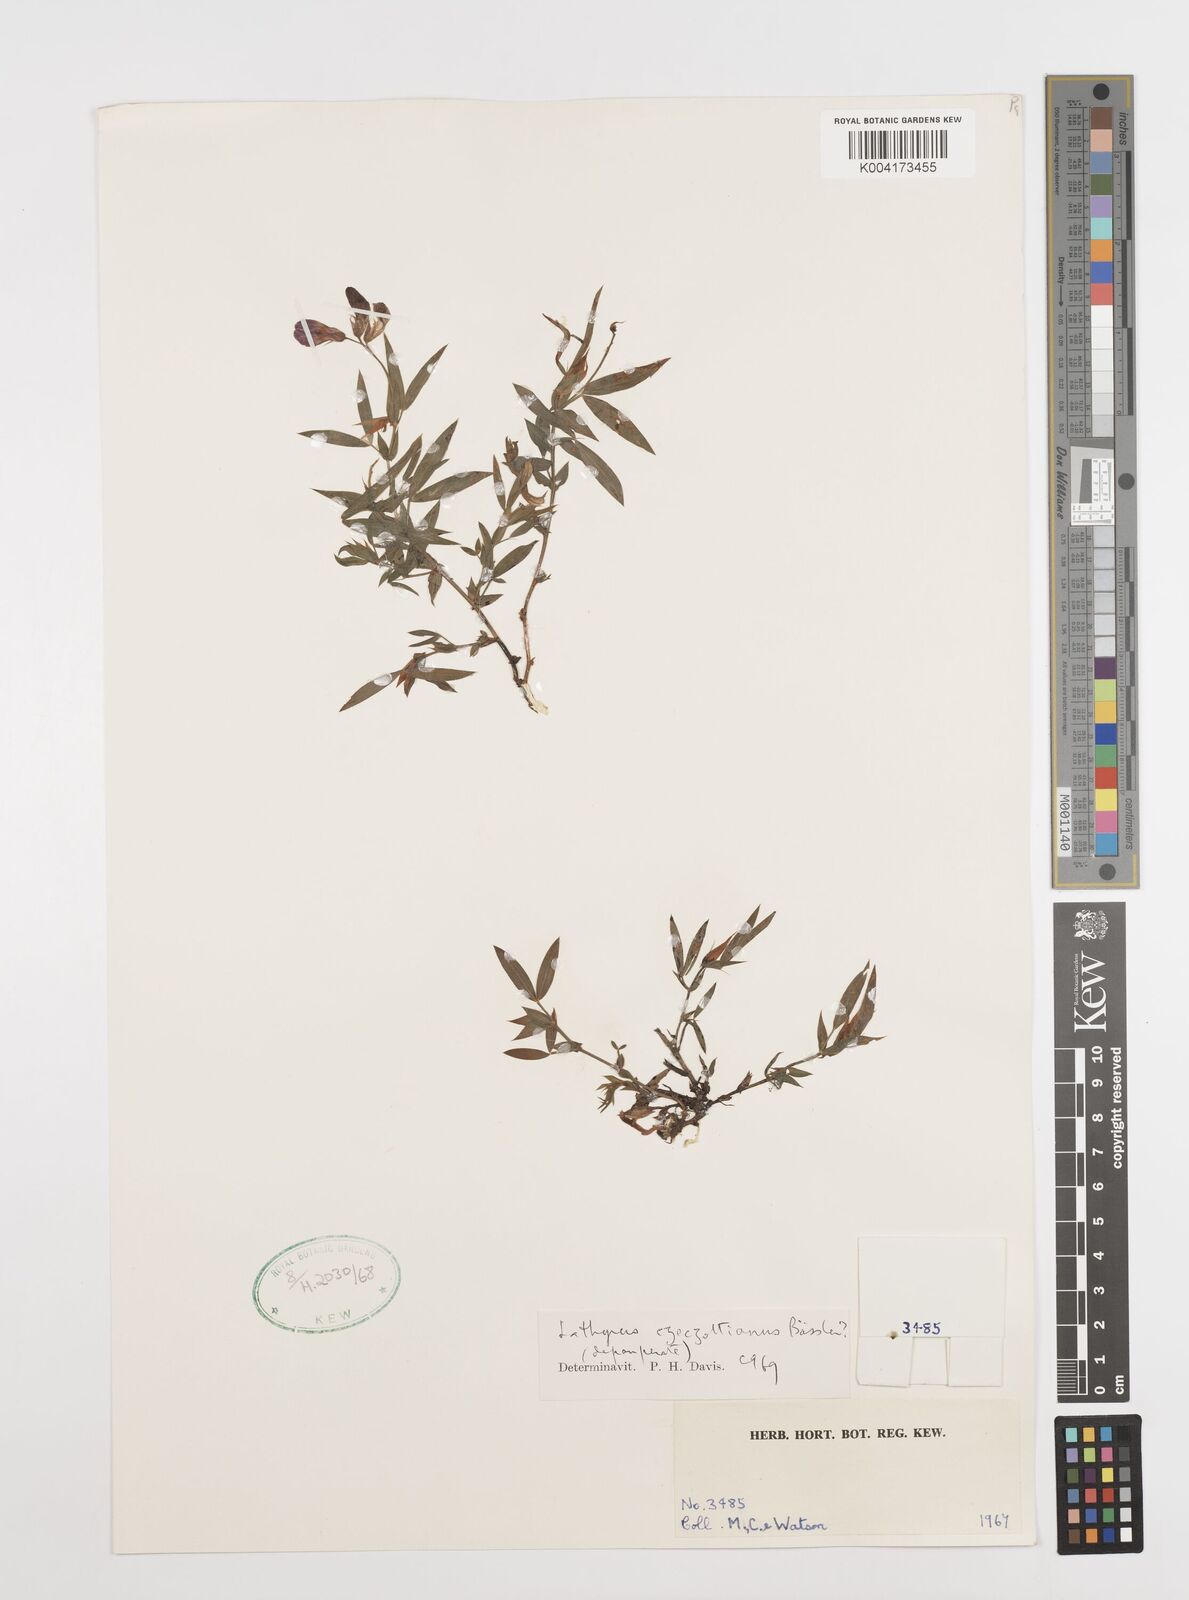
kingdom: Plantae
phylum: Tracheophyta
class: Magnoliopsida
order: Fabales
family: Fabaceae
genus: Lathyrus
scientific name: Lathyrus czeczottianus
